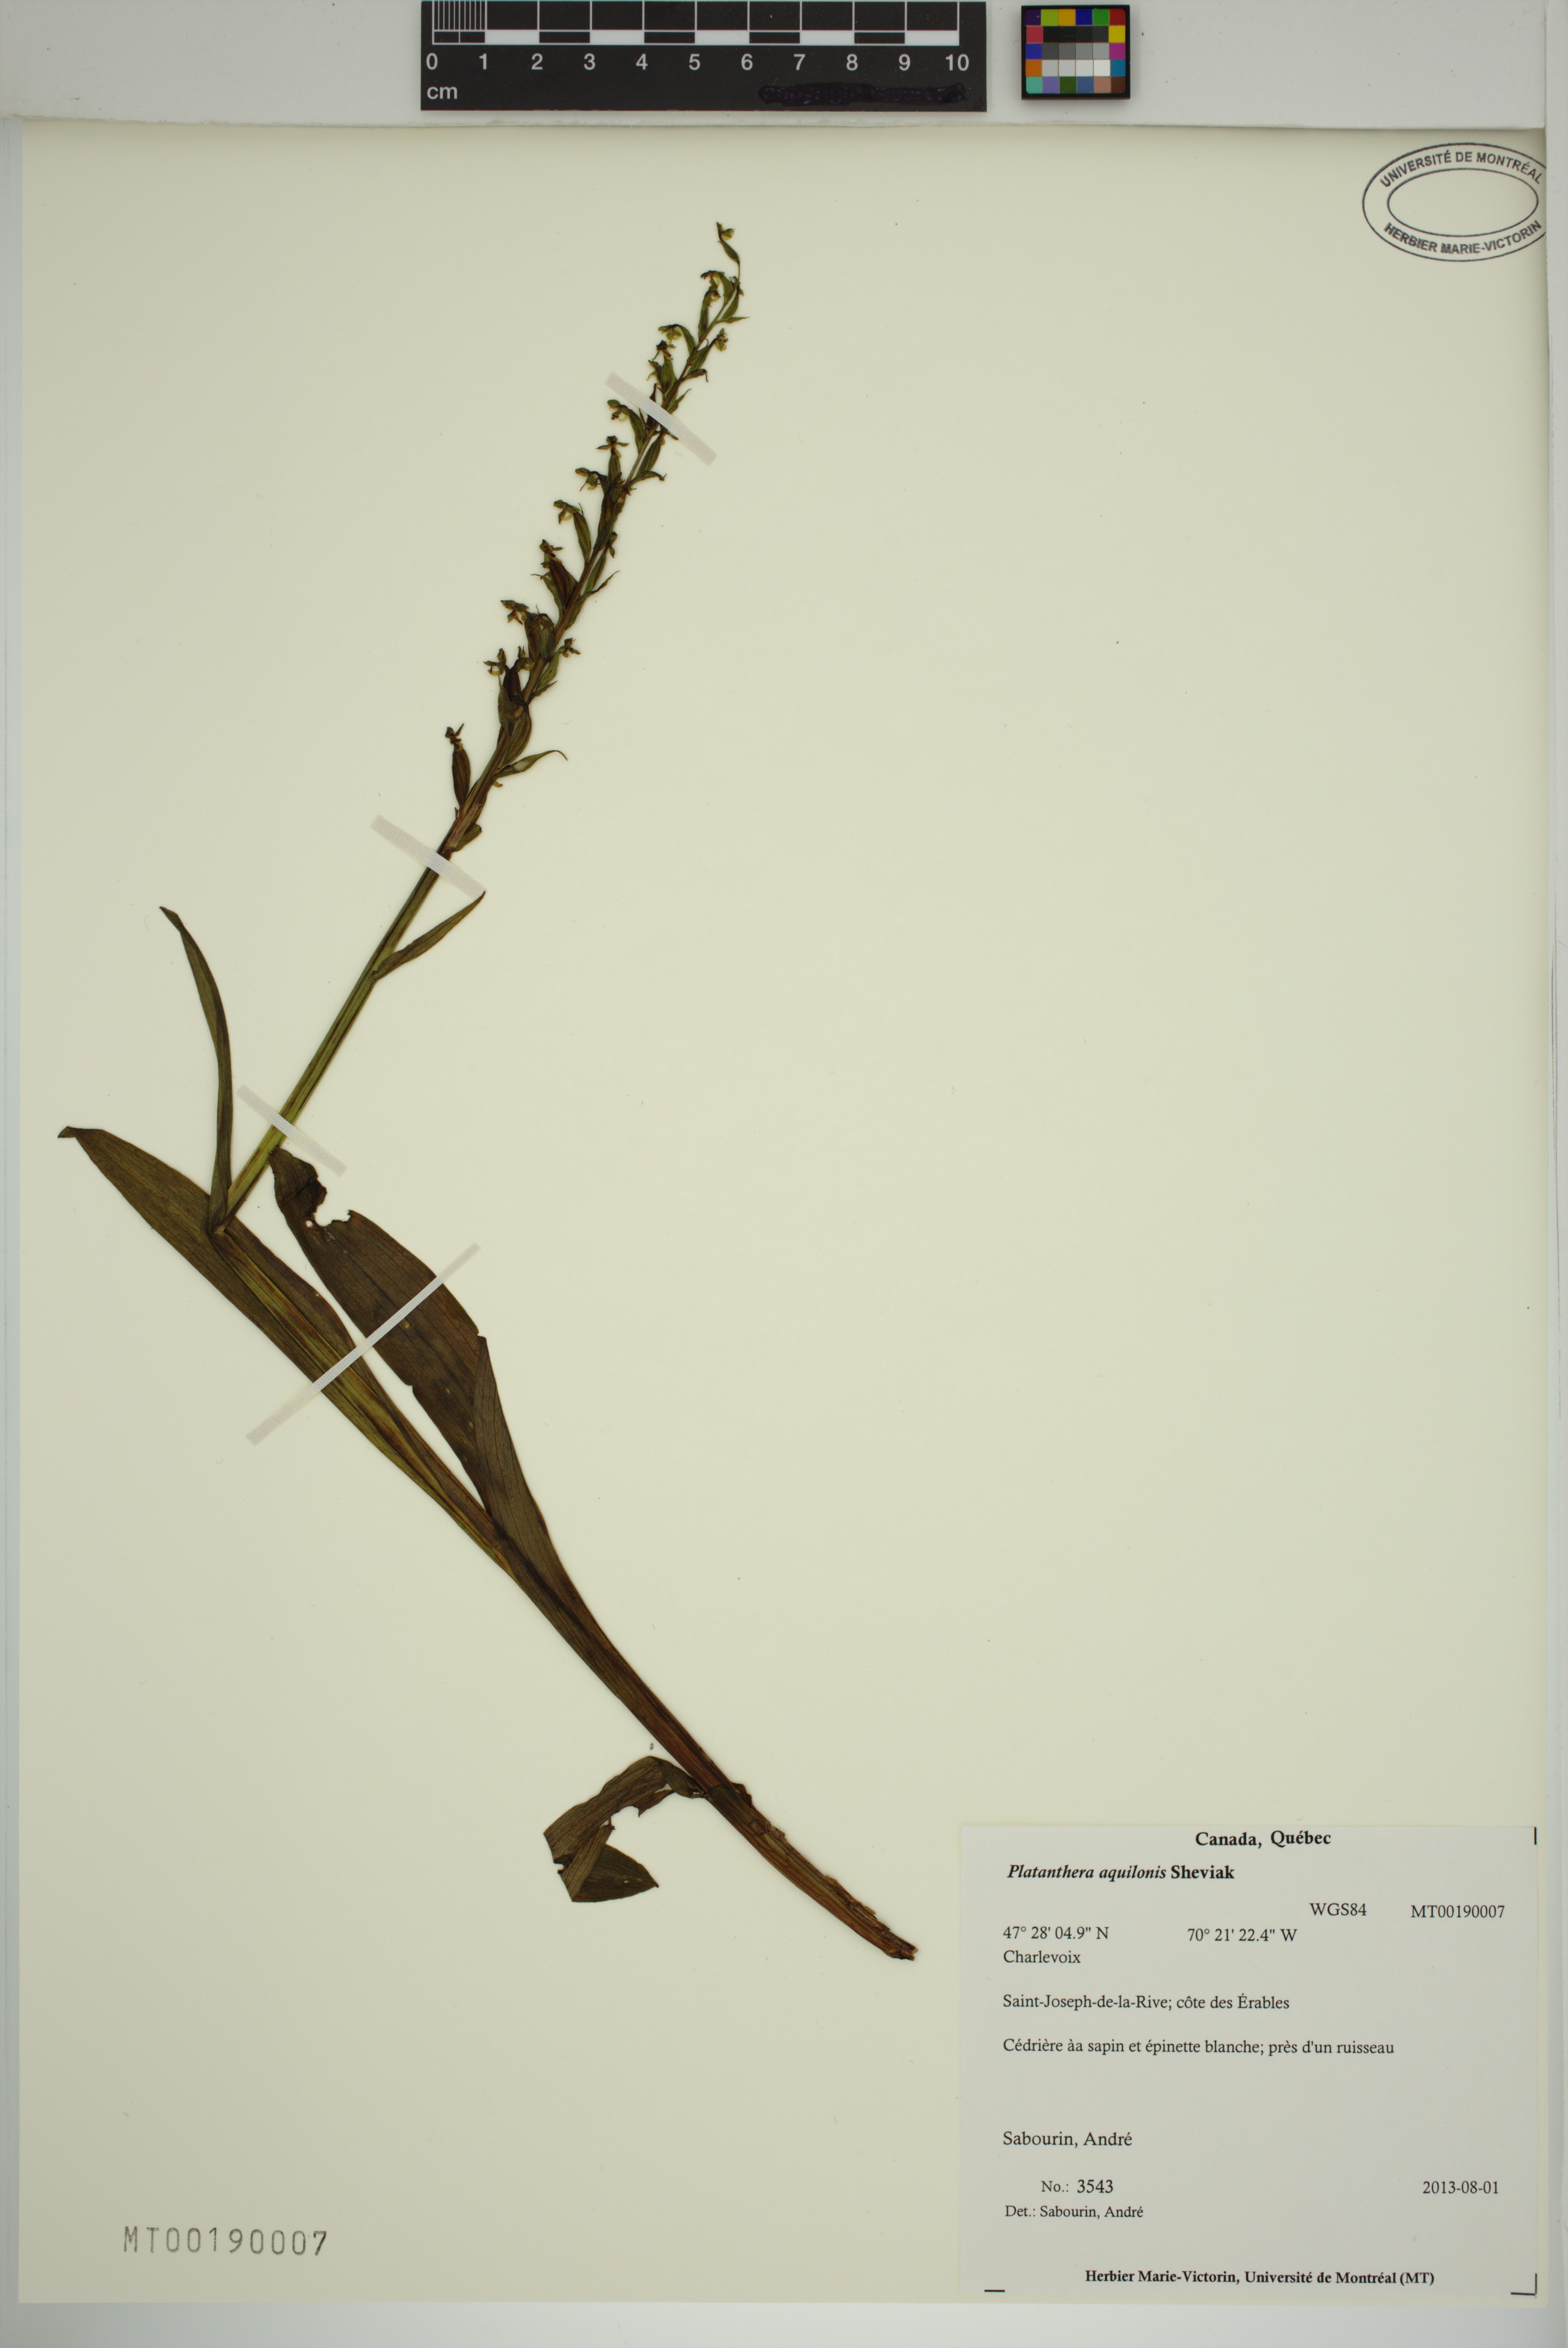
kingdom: Plantae
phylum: Tracheophyta
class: Liliopsida
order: Asparagales
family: Orchidaceae
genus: Platanthera
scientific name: Platanthera aquilonis
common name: Northern green orchid
